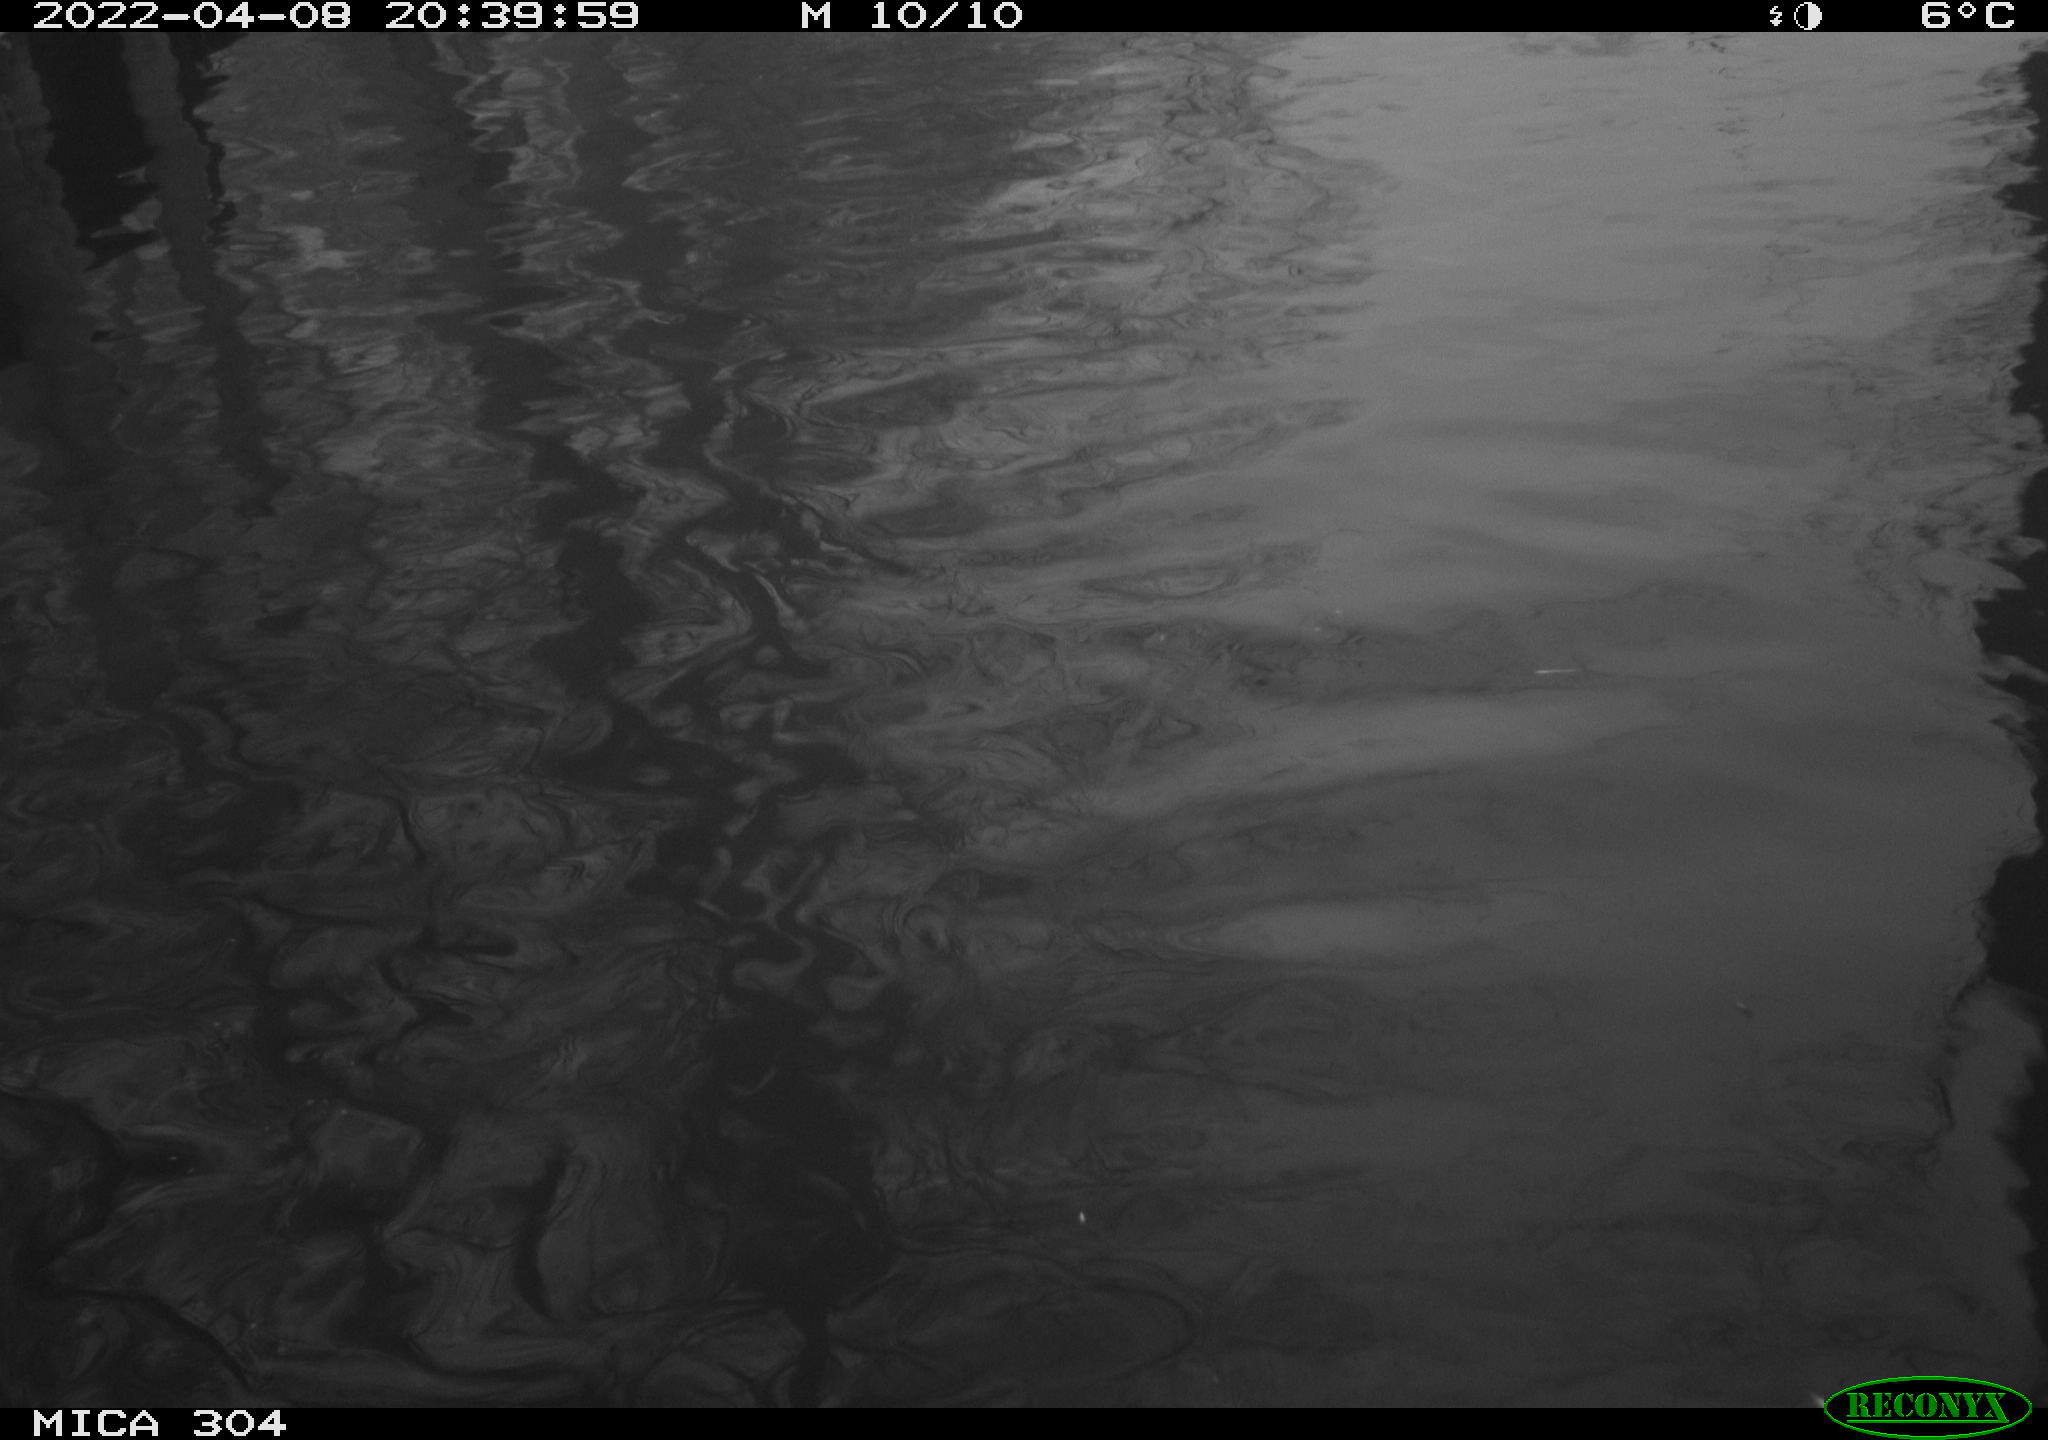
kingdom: Animalia
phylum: Chordata
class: Aves
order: Anseriformes
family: Anatidae
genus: Anas
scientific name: Anas platyrhynchos
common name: Mallard
